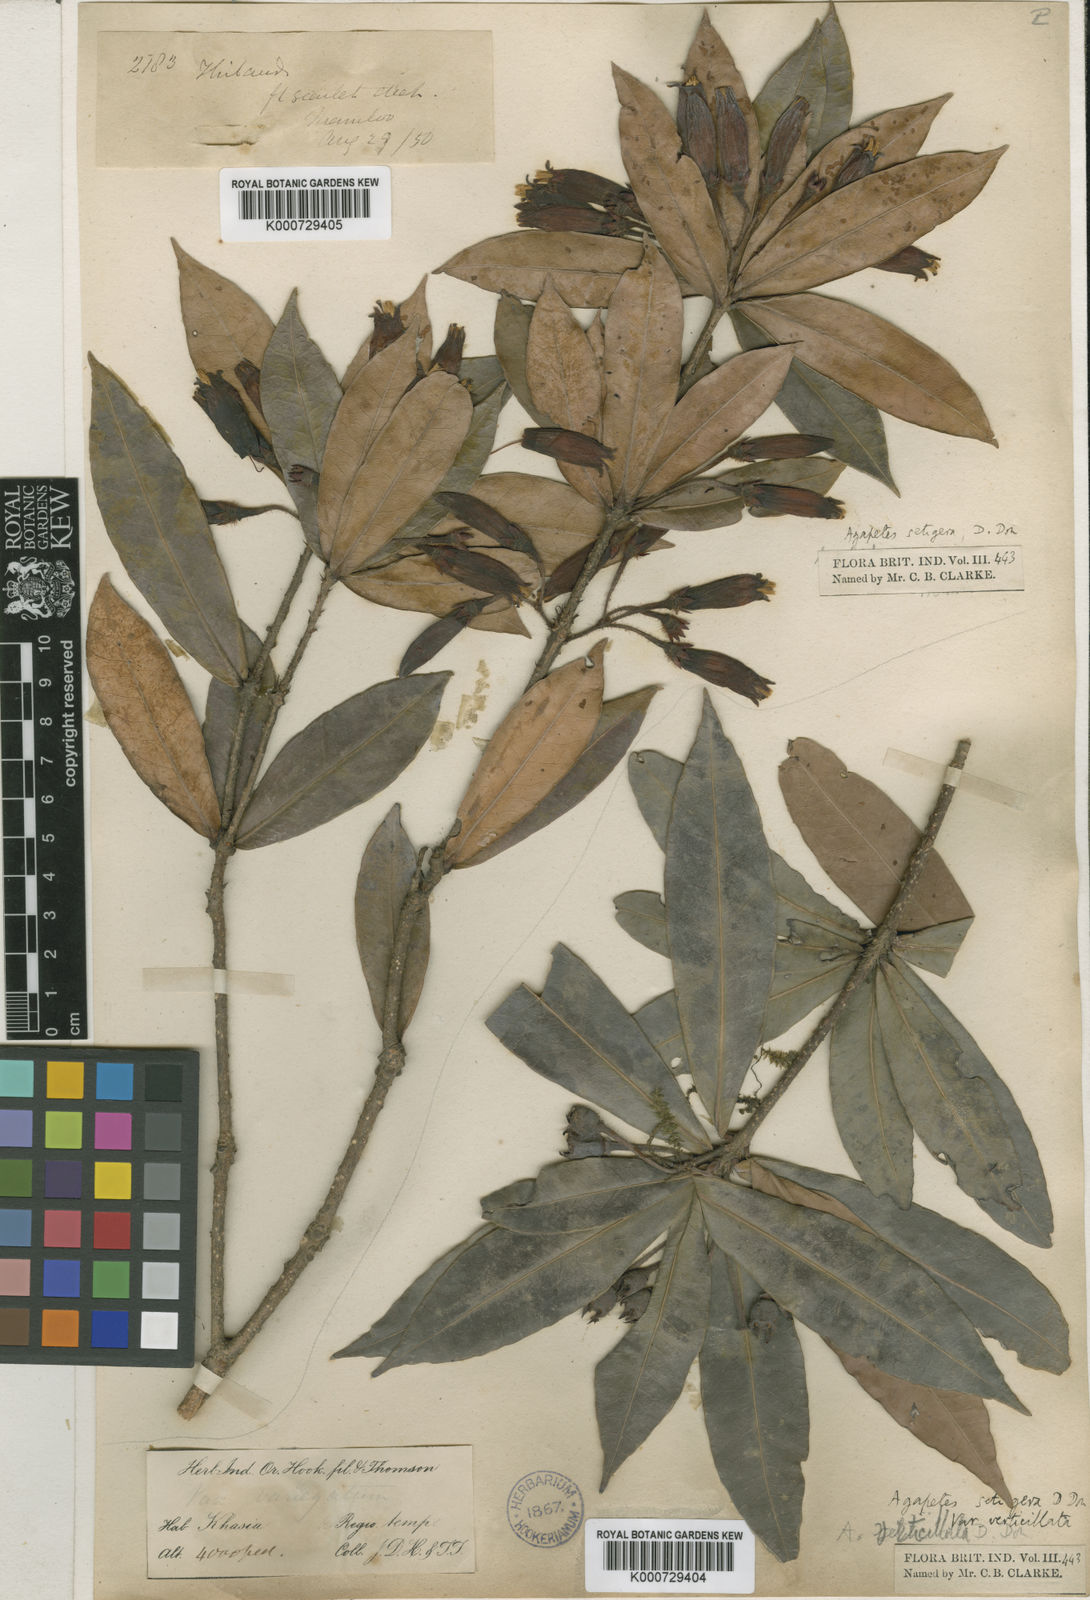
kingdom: Plantae
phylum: Tracheophyta
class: Magnoliopsida
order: Ericales
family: Ericaceae
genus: Agapetes
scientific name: Agapetes setigera
